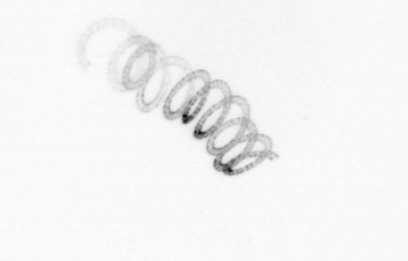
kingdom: Chromista
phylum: Ochrophyta
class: Bacillariophyceae
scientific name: Bacillariophyceae
